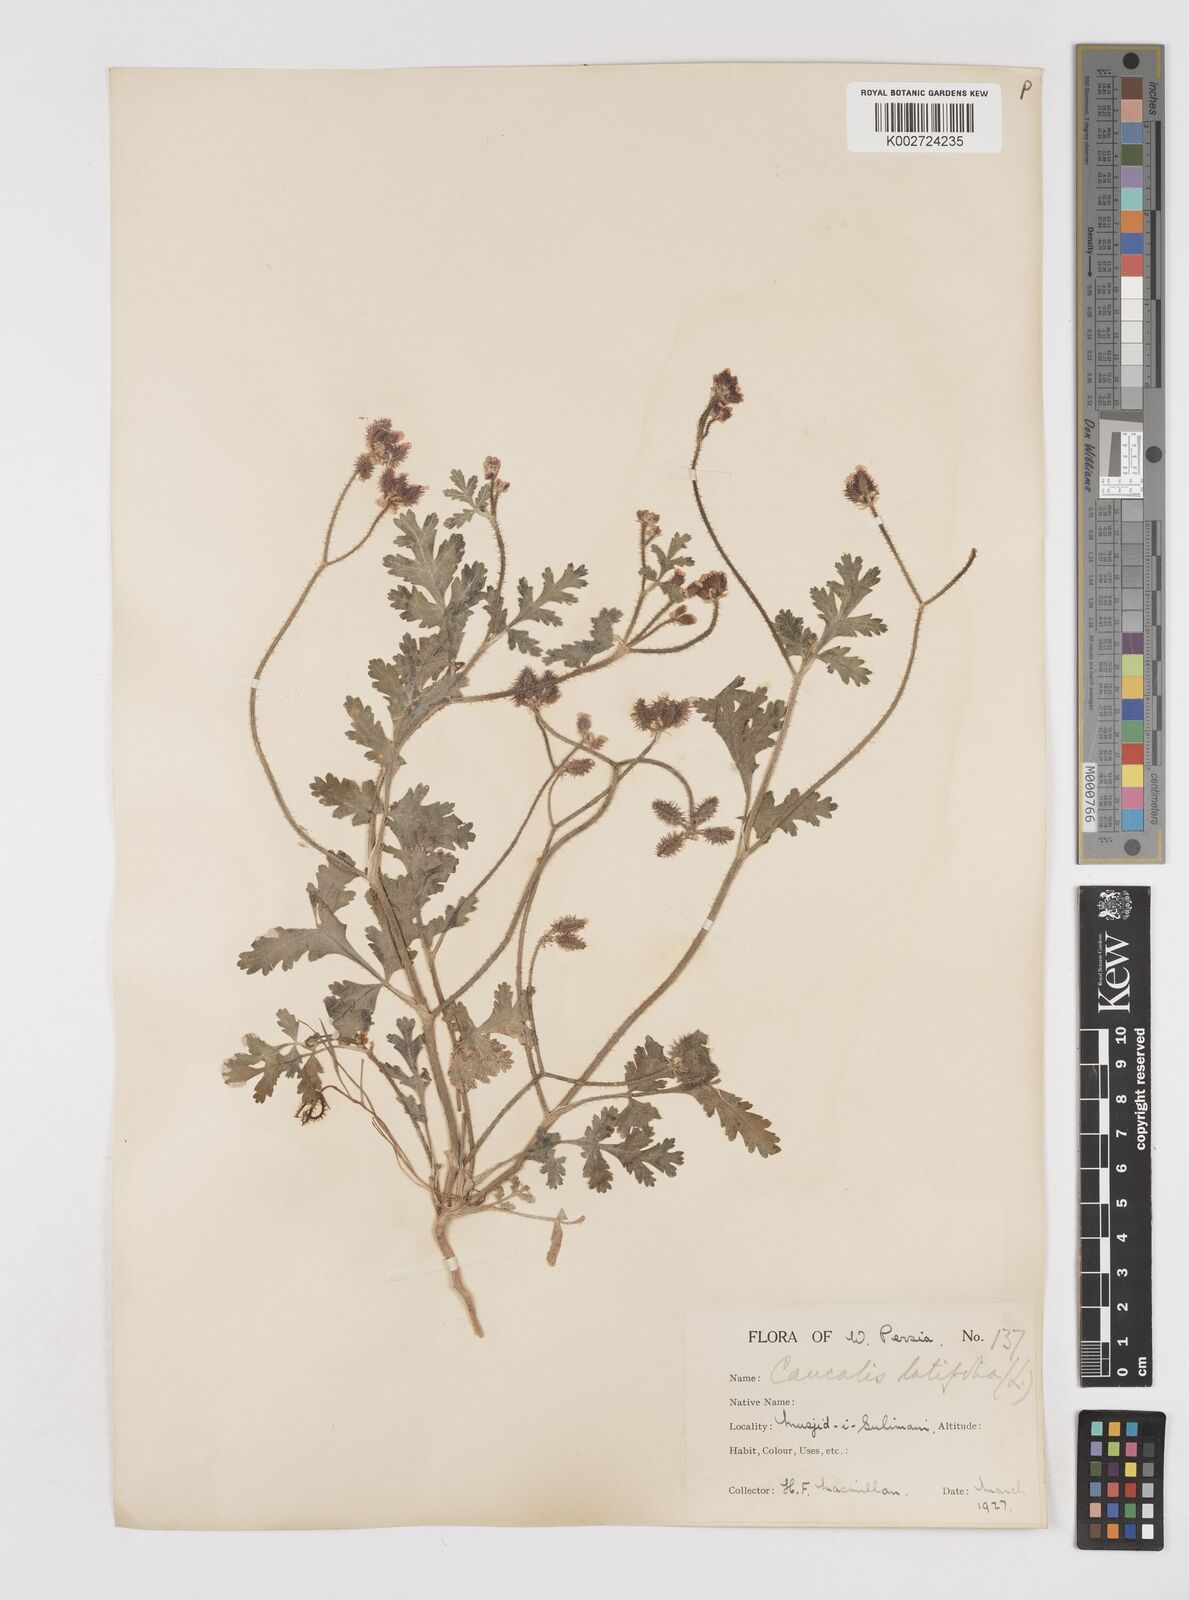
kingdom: Plantae
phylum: Tracheophyta
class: Magnoliopsida
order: Apiales
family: Apiaceae
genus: Turgenia
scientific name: Turgenia latifolia
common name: Greater bur-parsley
